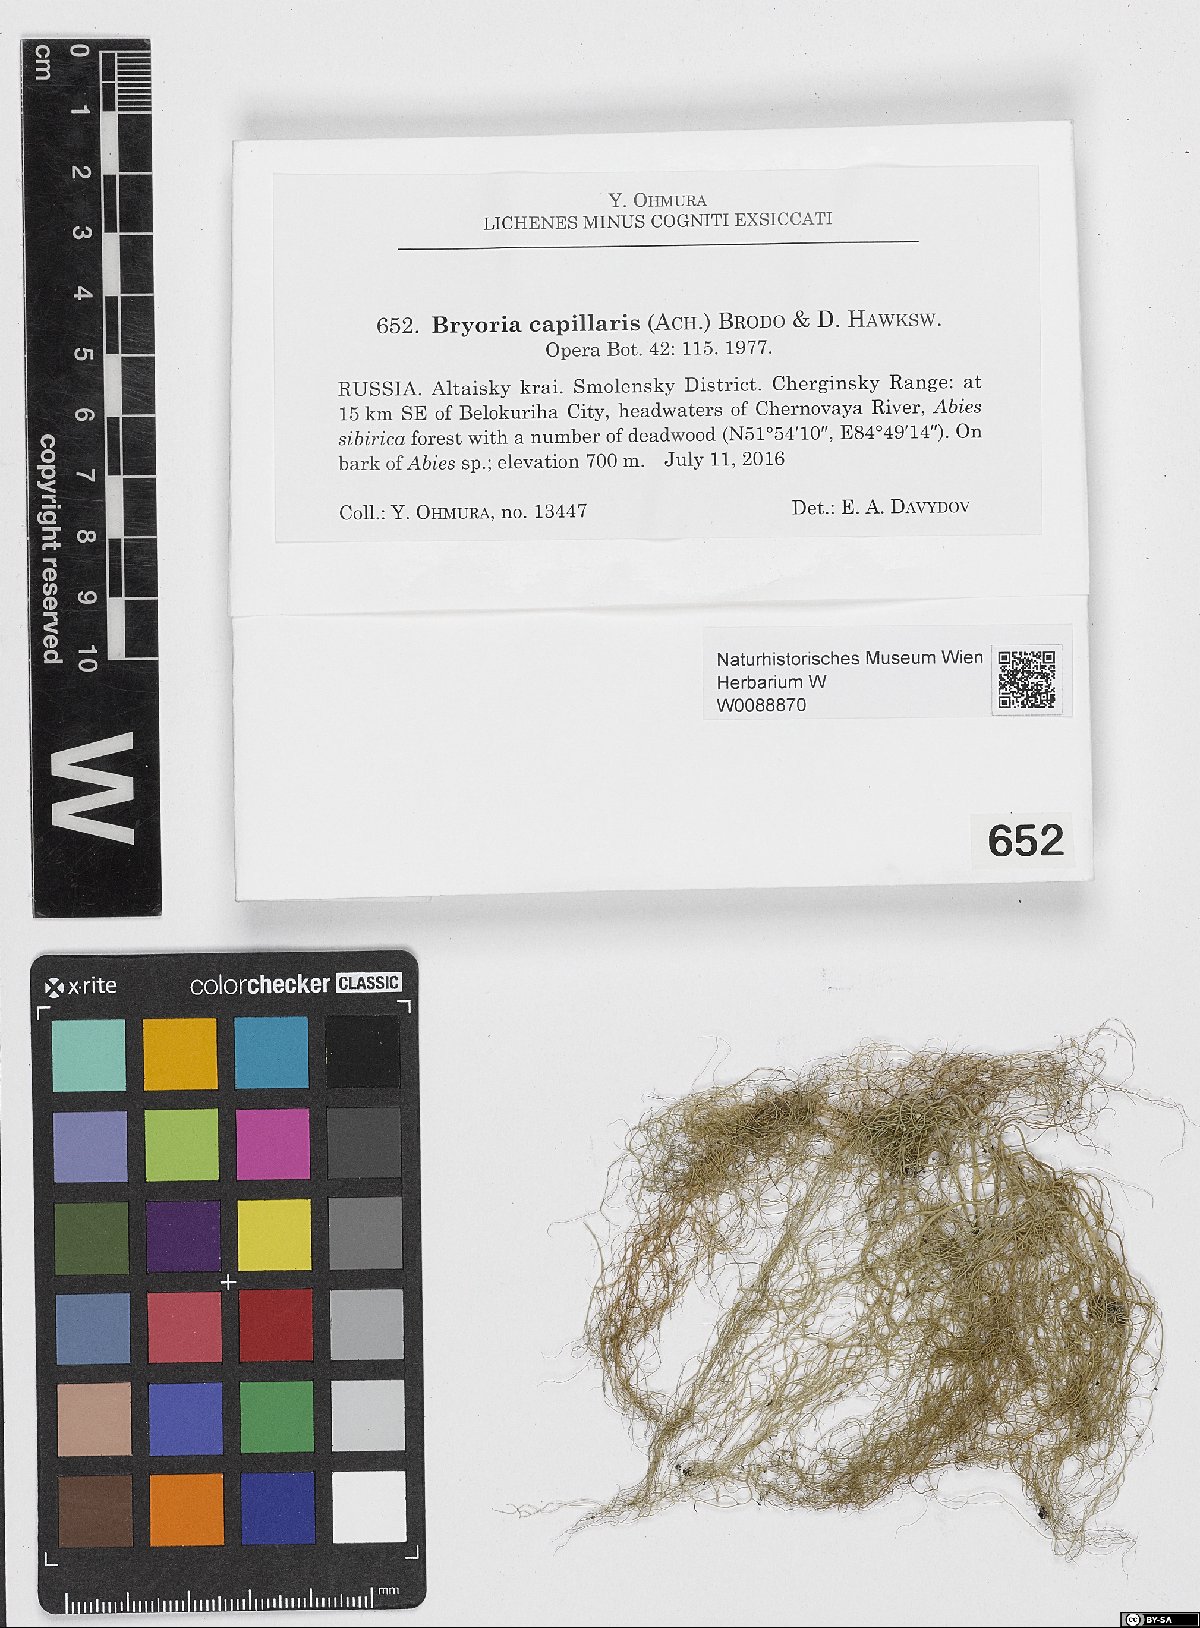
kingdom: Fungi
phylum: Ascomycota
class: Lecanoromycetes
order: Lecanorales
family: Parmeliaceae
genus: Bryoria
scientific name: Bryoria capillaris
